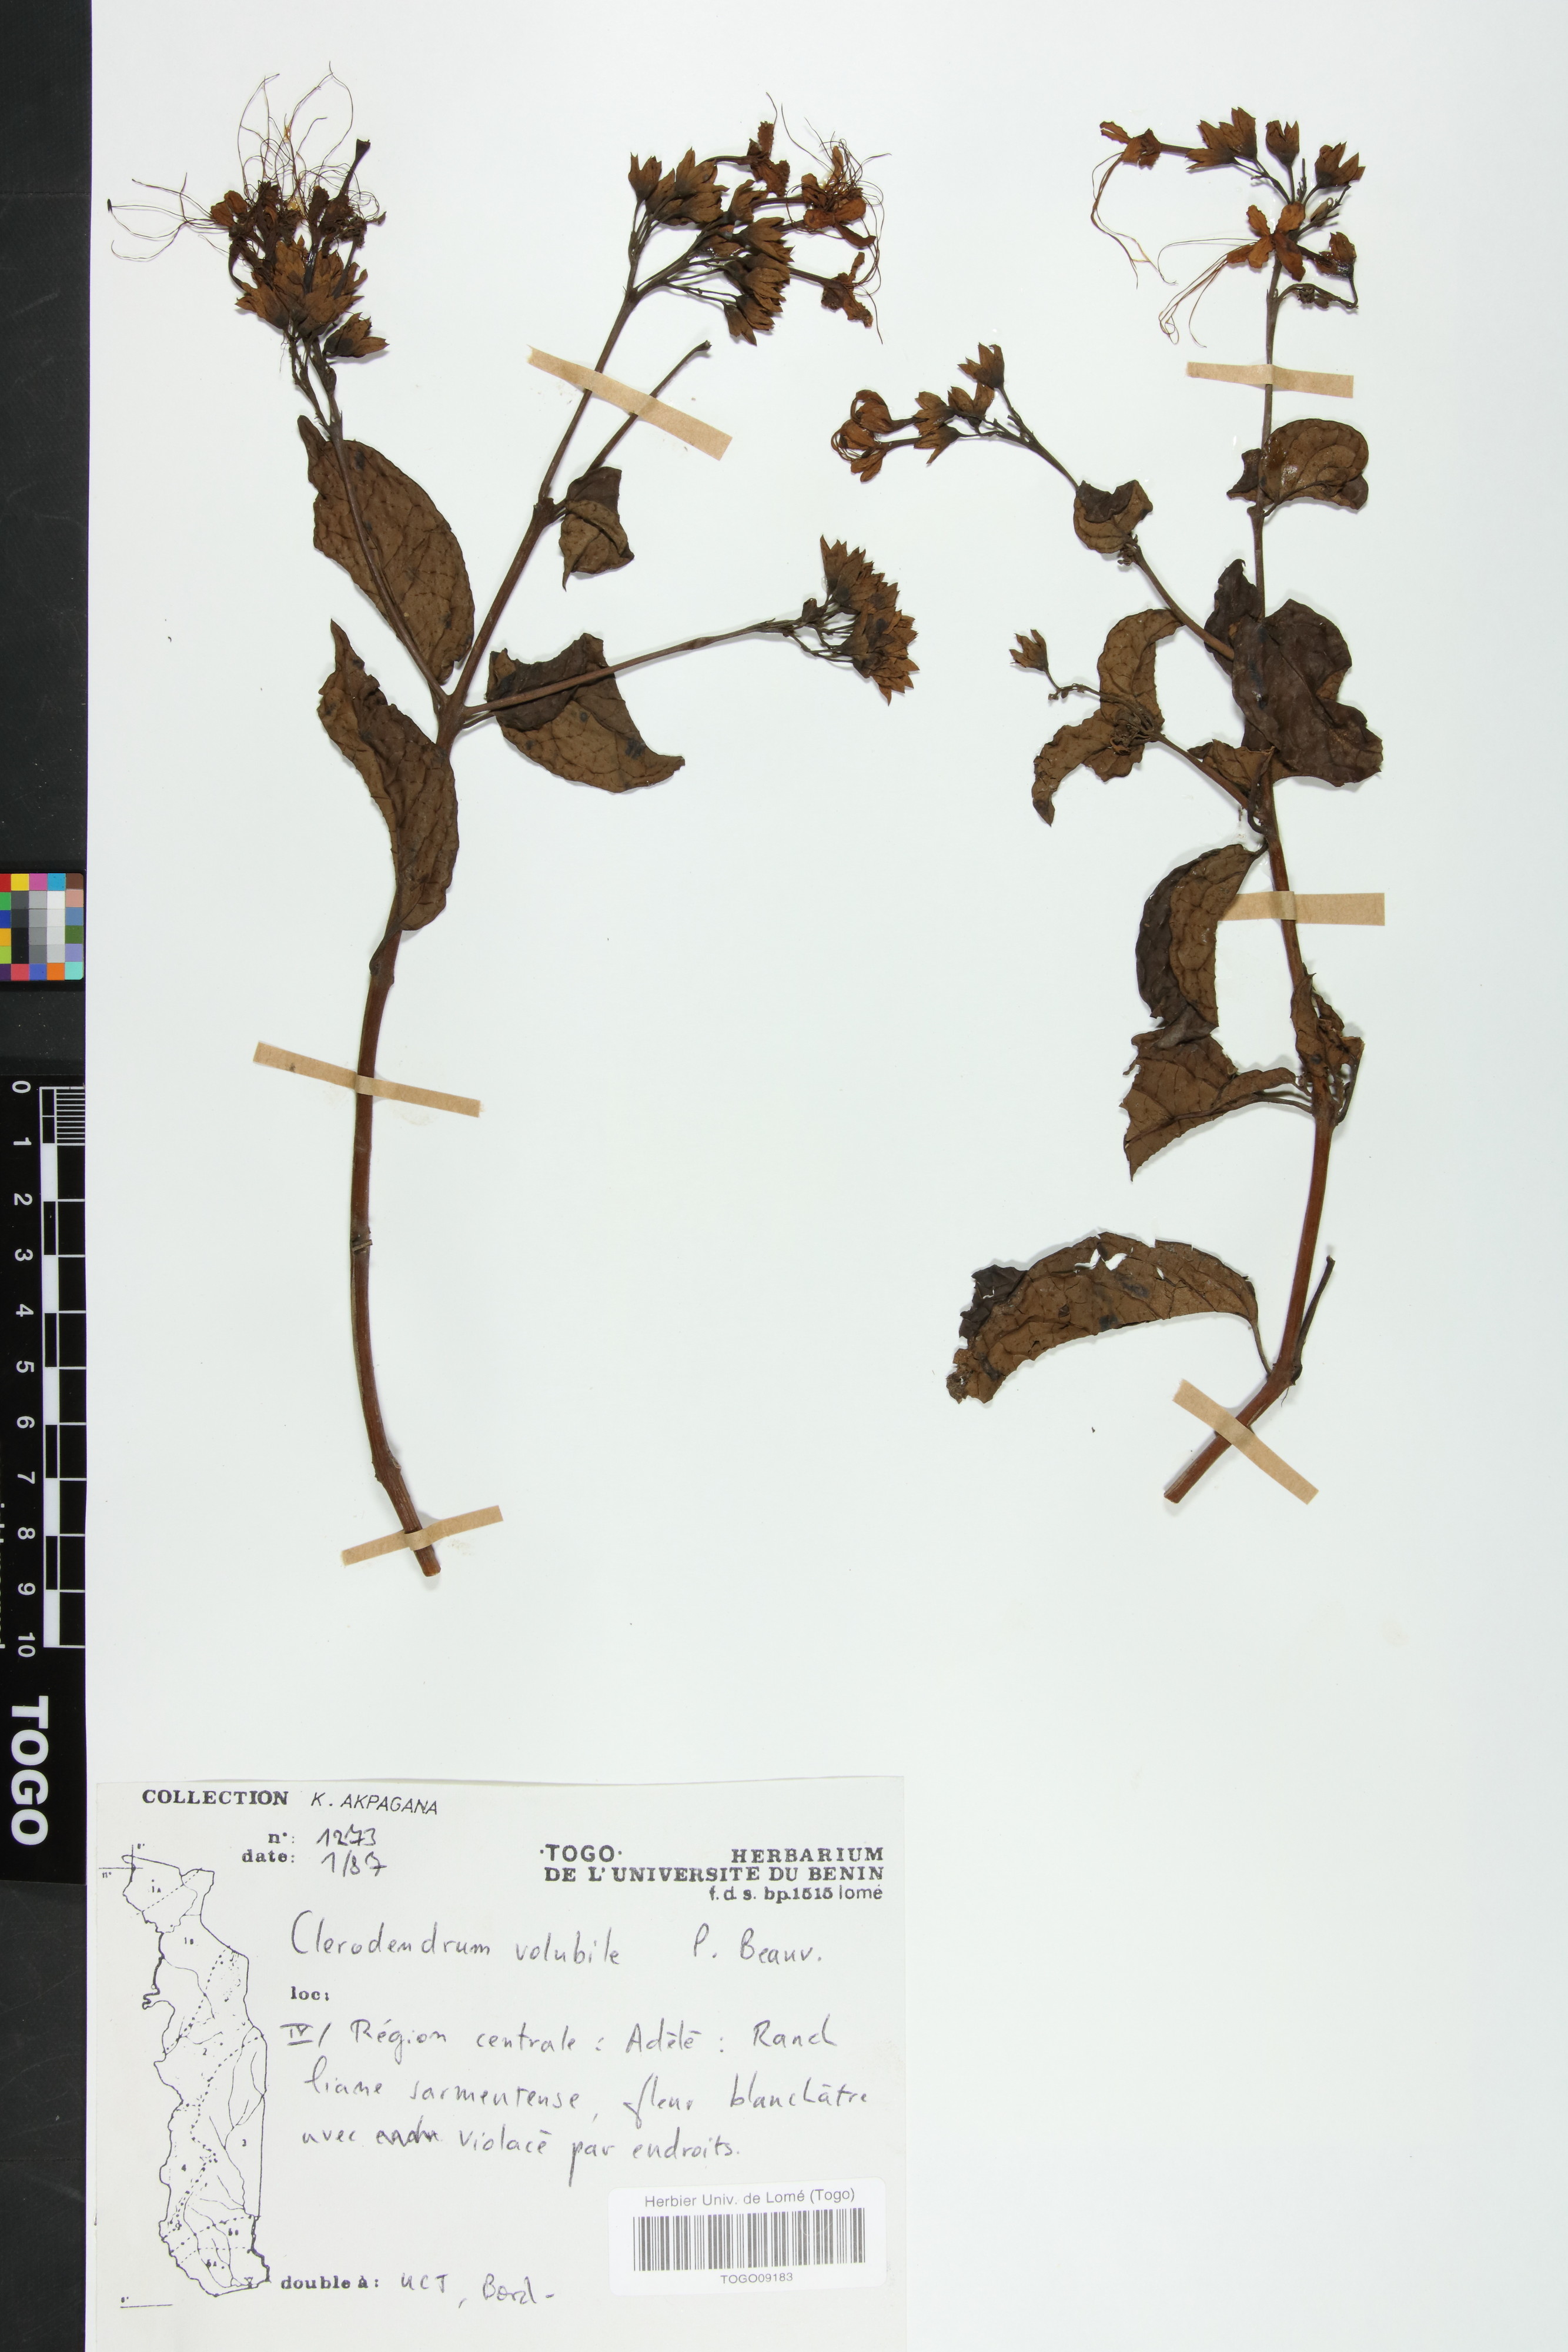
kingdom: Plantae
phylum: Tracheophyta
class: Magnoliopsida
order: Lamiales
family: Lamiaceae
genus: Clerodendrum
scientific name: Clerodendrum volubile
